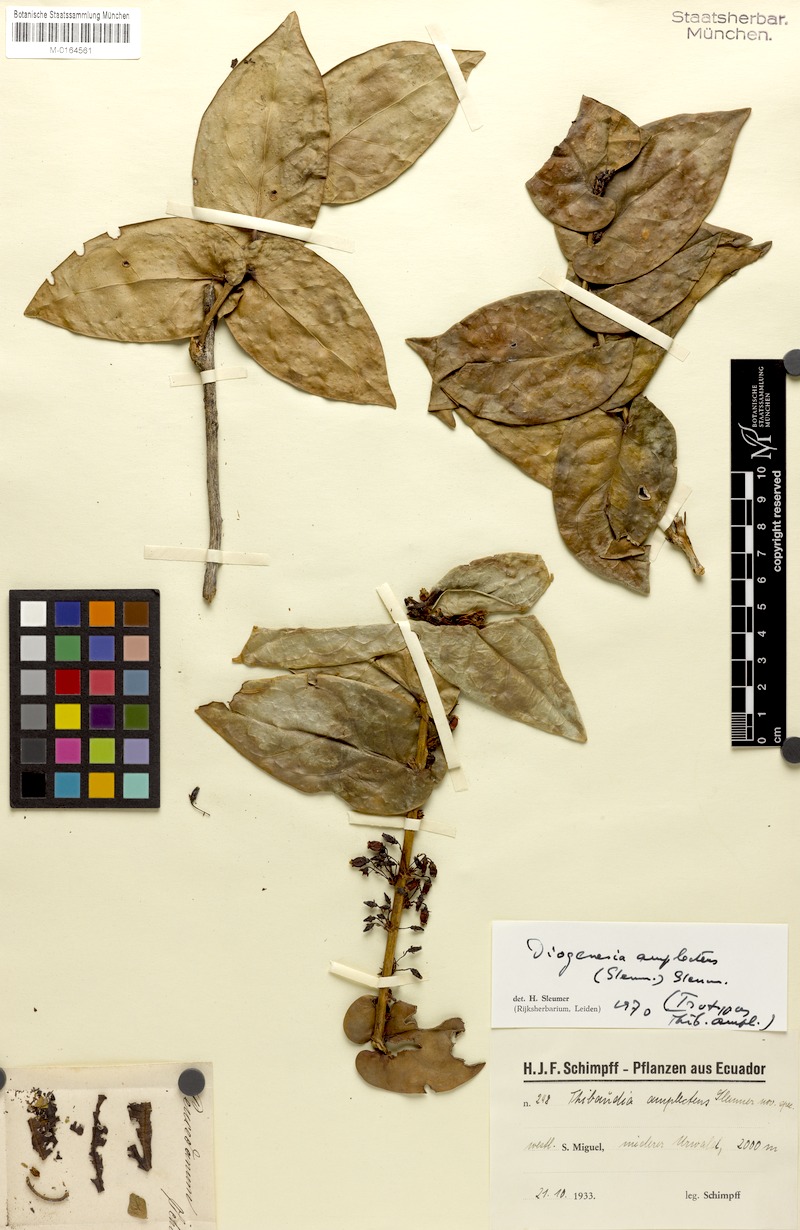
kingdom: Plantae
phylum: Tracheophyta
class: Magnoliopsida
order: Ericales
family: Ericaceae
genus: Diogenesia
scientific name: Diogenesia amplectens
